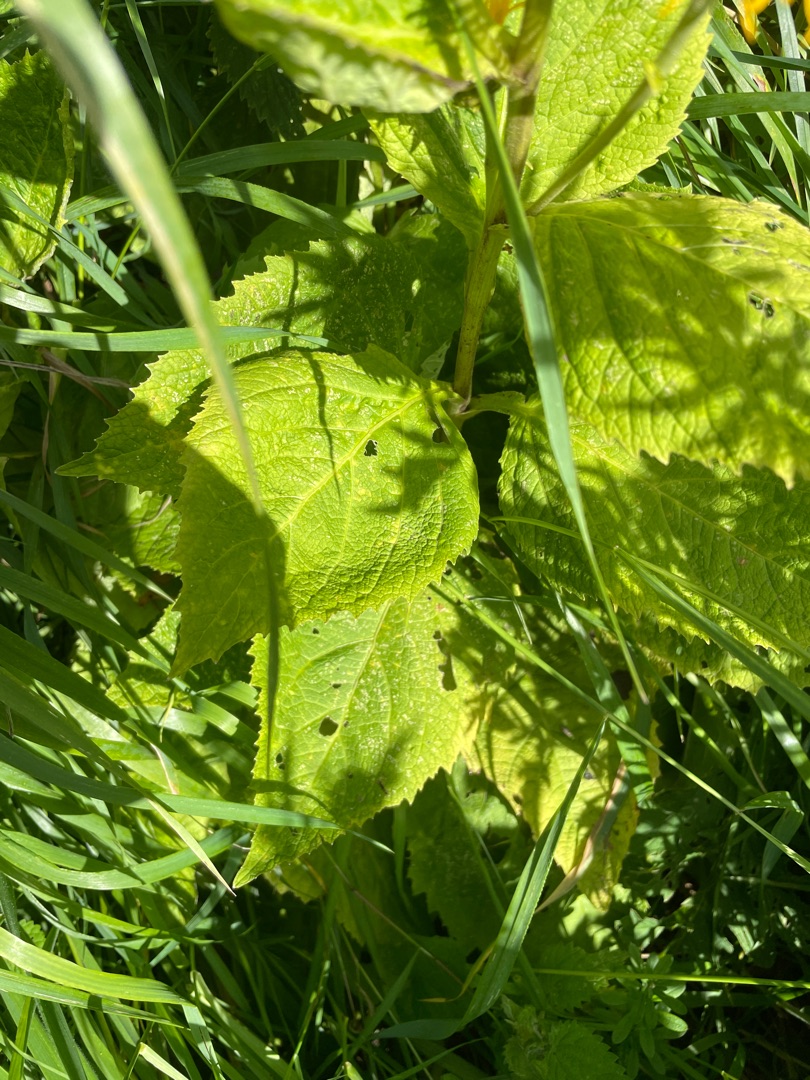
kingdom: Plantae
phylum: Tracheophyta
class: Magnoliopsida
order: Asterales
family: Asteraceae
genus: Telekia
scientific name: Telekia speciosa
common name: Tusindstråle
